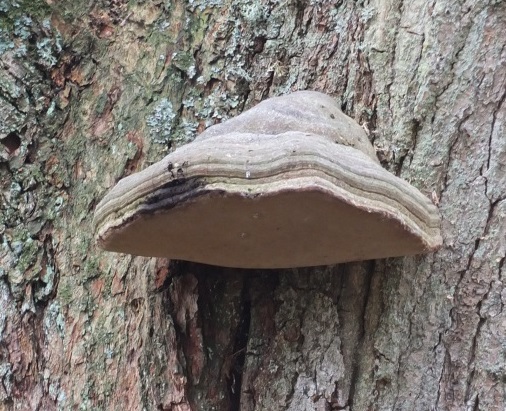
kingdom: Fungi
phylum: Basidiomycota
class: Agaricomycetes
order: Polyporales
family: Polyporaceae
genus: Fomes
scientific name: Fomes fomentarius
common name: tøndersvamp
